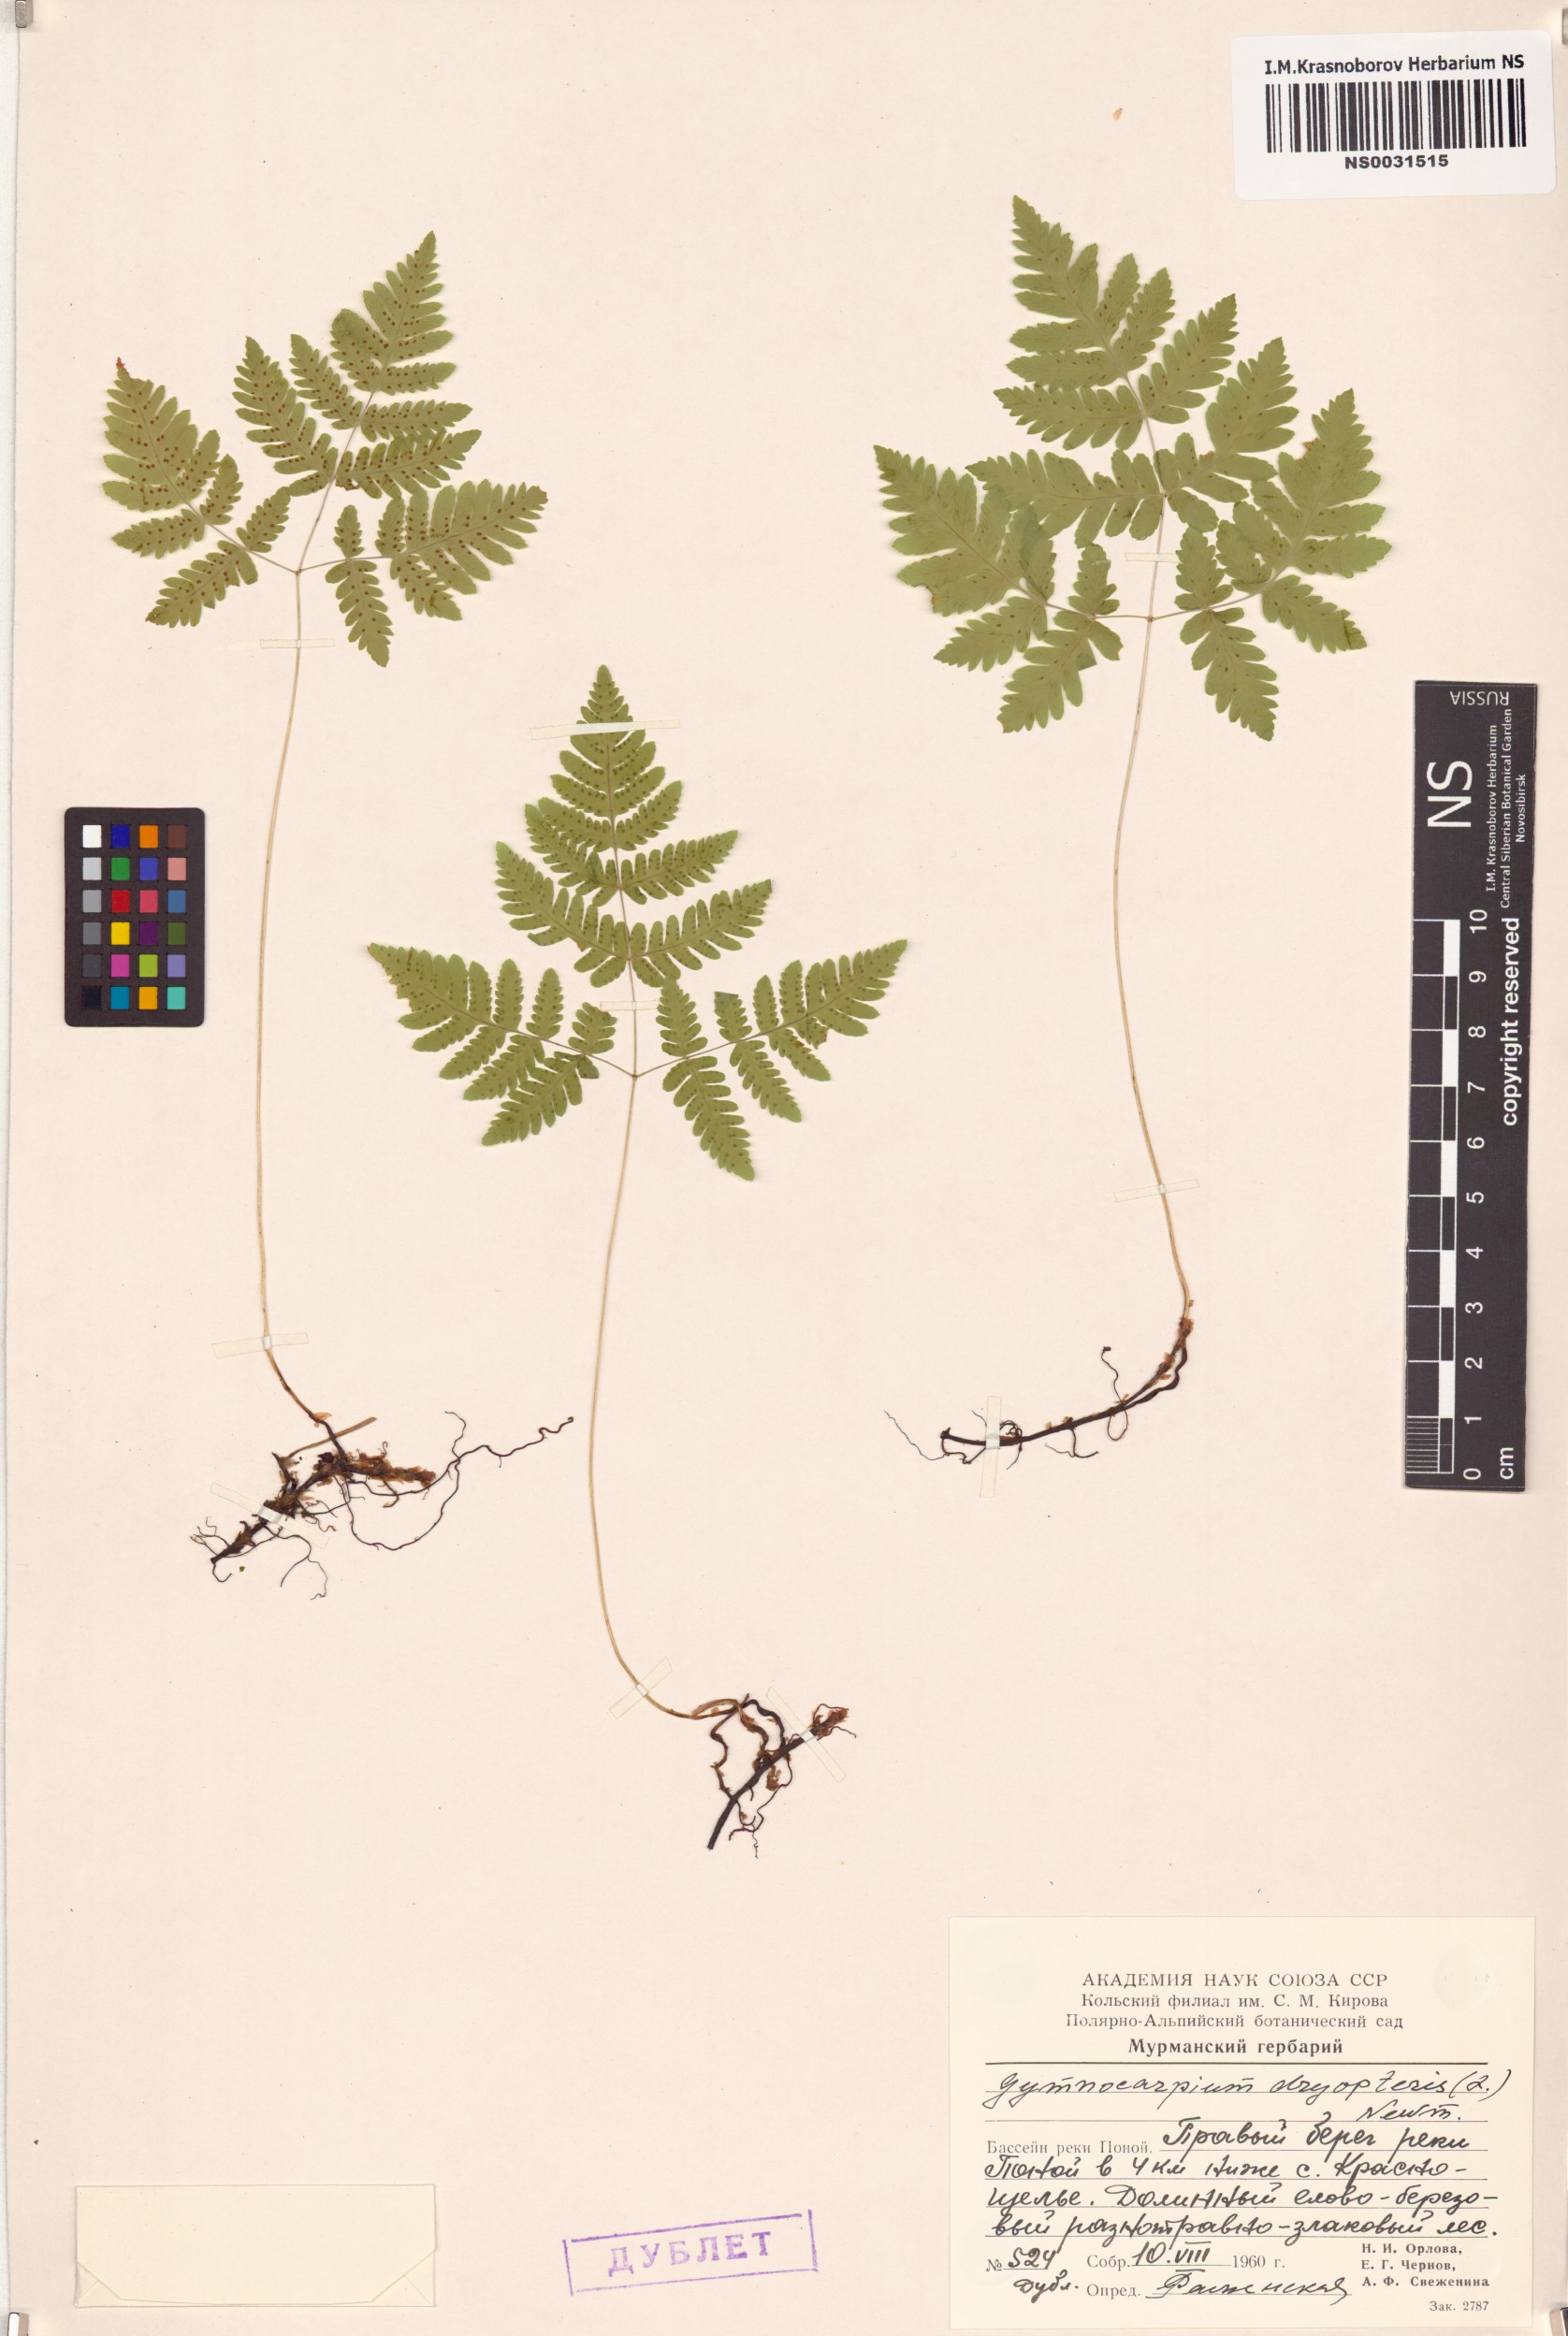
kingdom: Plantae
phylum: Tracheophyta
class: Polypodiopsida
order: Polypodiales
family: Cystopteridaceae
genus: Gymnocarpium
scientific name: Gymnocarpium dryopteris
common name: Oak fern
